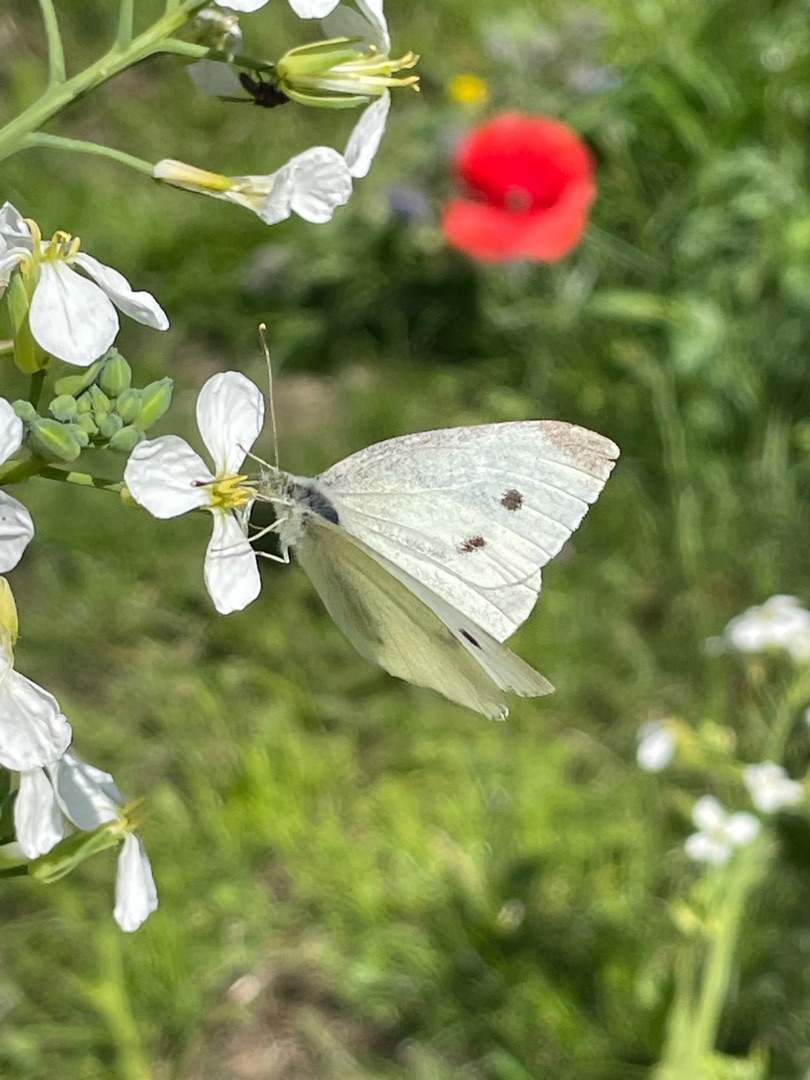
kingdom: Animalia
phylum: Arthropoda
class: Insecta
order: Lepidoptera
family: Pieridae
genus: Pieris
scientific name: Pieris rapae
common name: Lille kålsommerfugl
